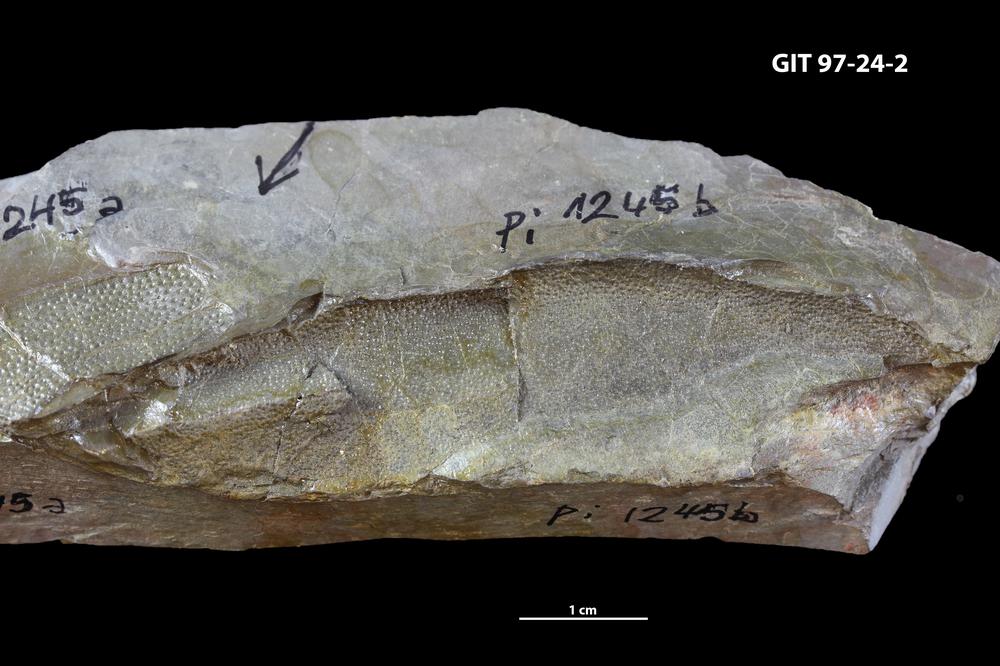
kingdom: Animalia
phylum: Chordata
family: Holonematidae
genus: Holonema
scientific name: Holonema
